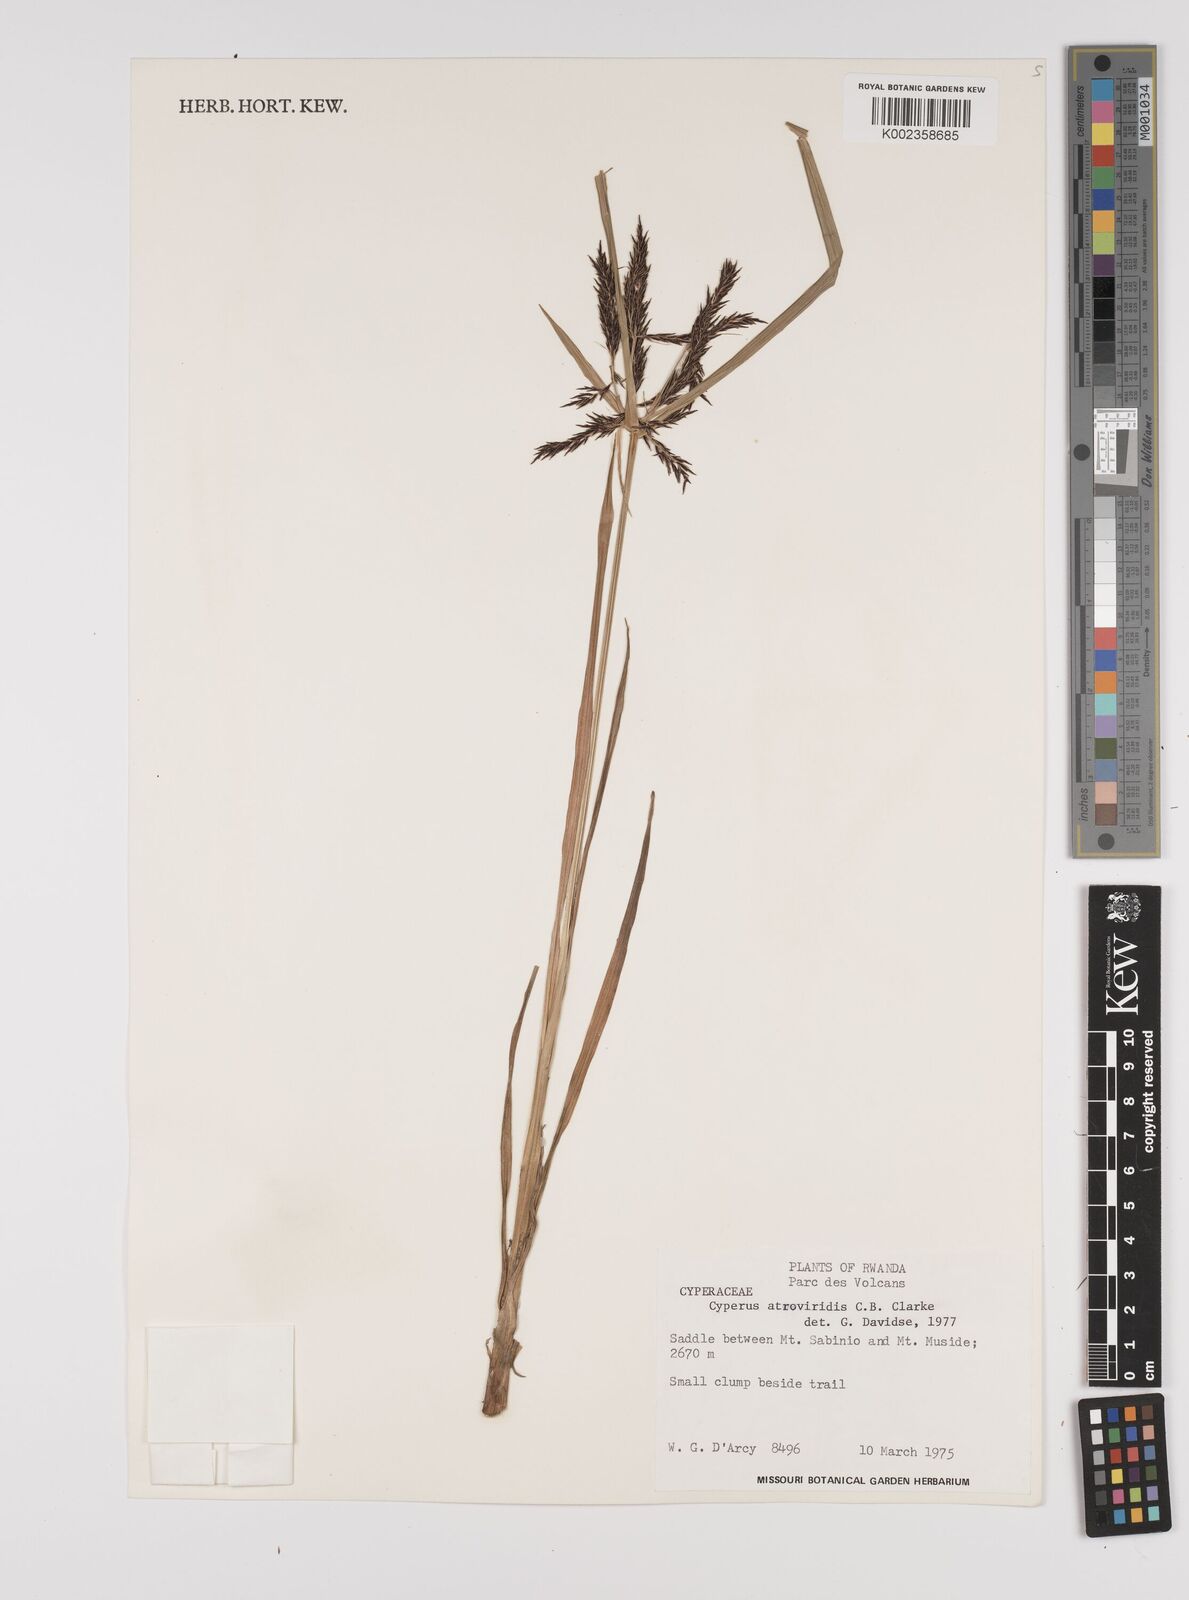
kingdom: Plantae
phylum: Tracheophyta
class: Liliopsida
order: Poales
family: Cyperaceae
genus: Cyperus
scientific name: Cyperus aterrimus
